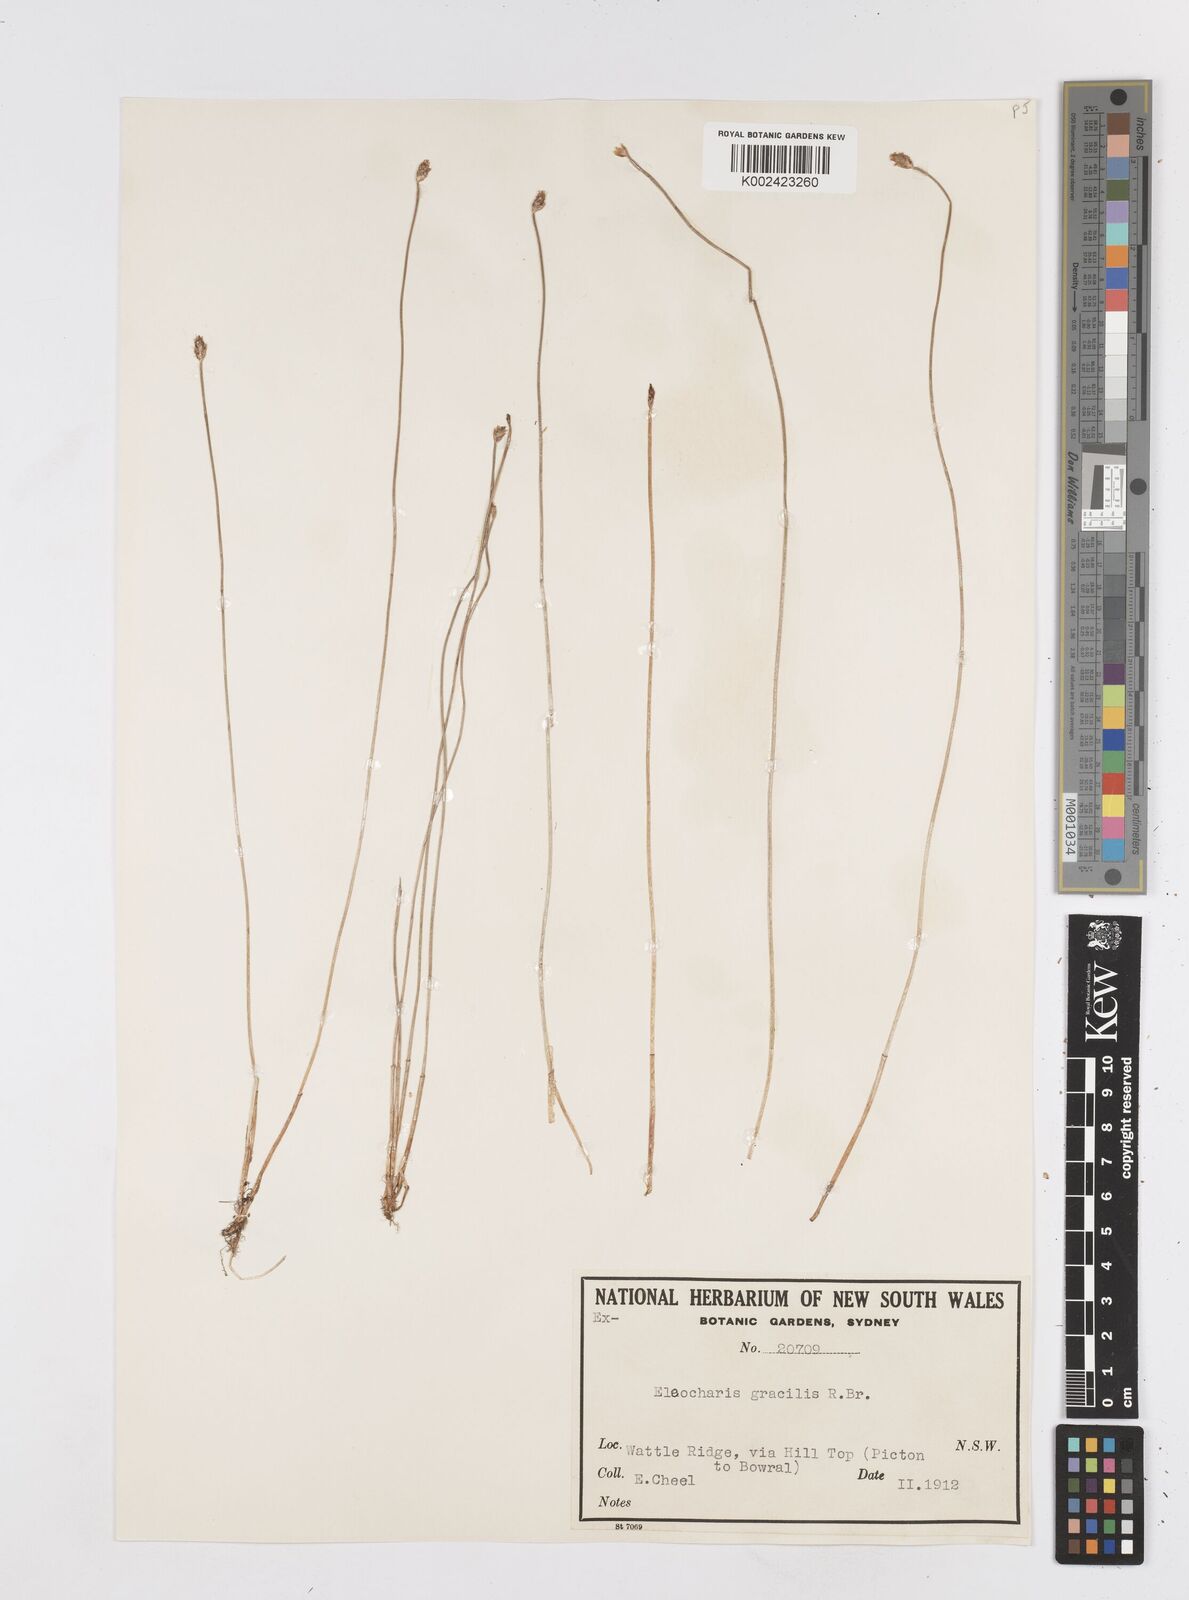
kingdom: Plantae
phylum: Tracheophyta
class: Liliopsida
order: Poales
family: Cyperaceae
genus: Eleocharis
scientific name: Eleocharis multicaulis
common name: Many-stalked spike-rush
